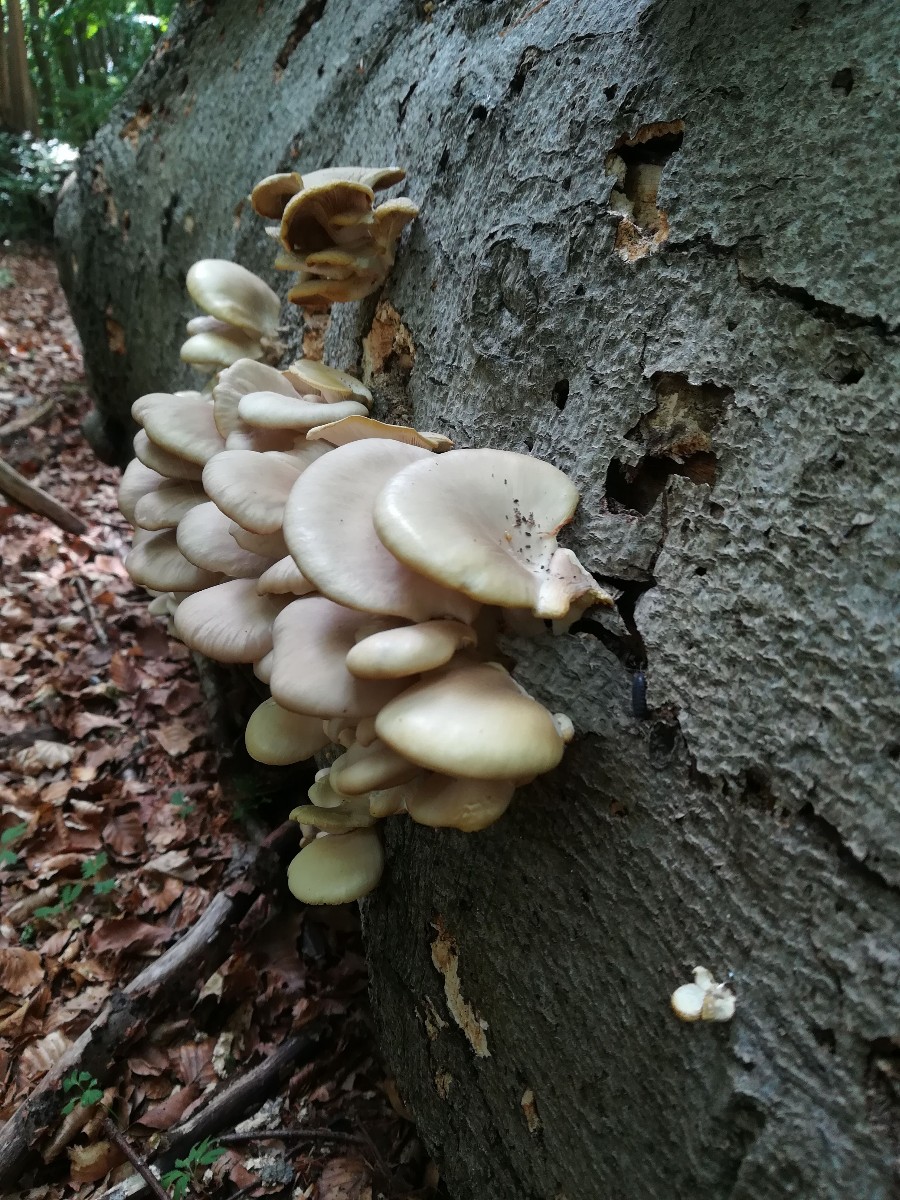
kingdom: Fungi
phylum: Basidiomycota
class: Agaricomycetes
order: Agaricales
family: Pleurotaceae
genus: Pleurotus
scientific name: Pleurotus pulmonarius
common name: sommer-østershat
